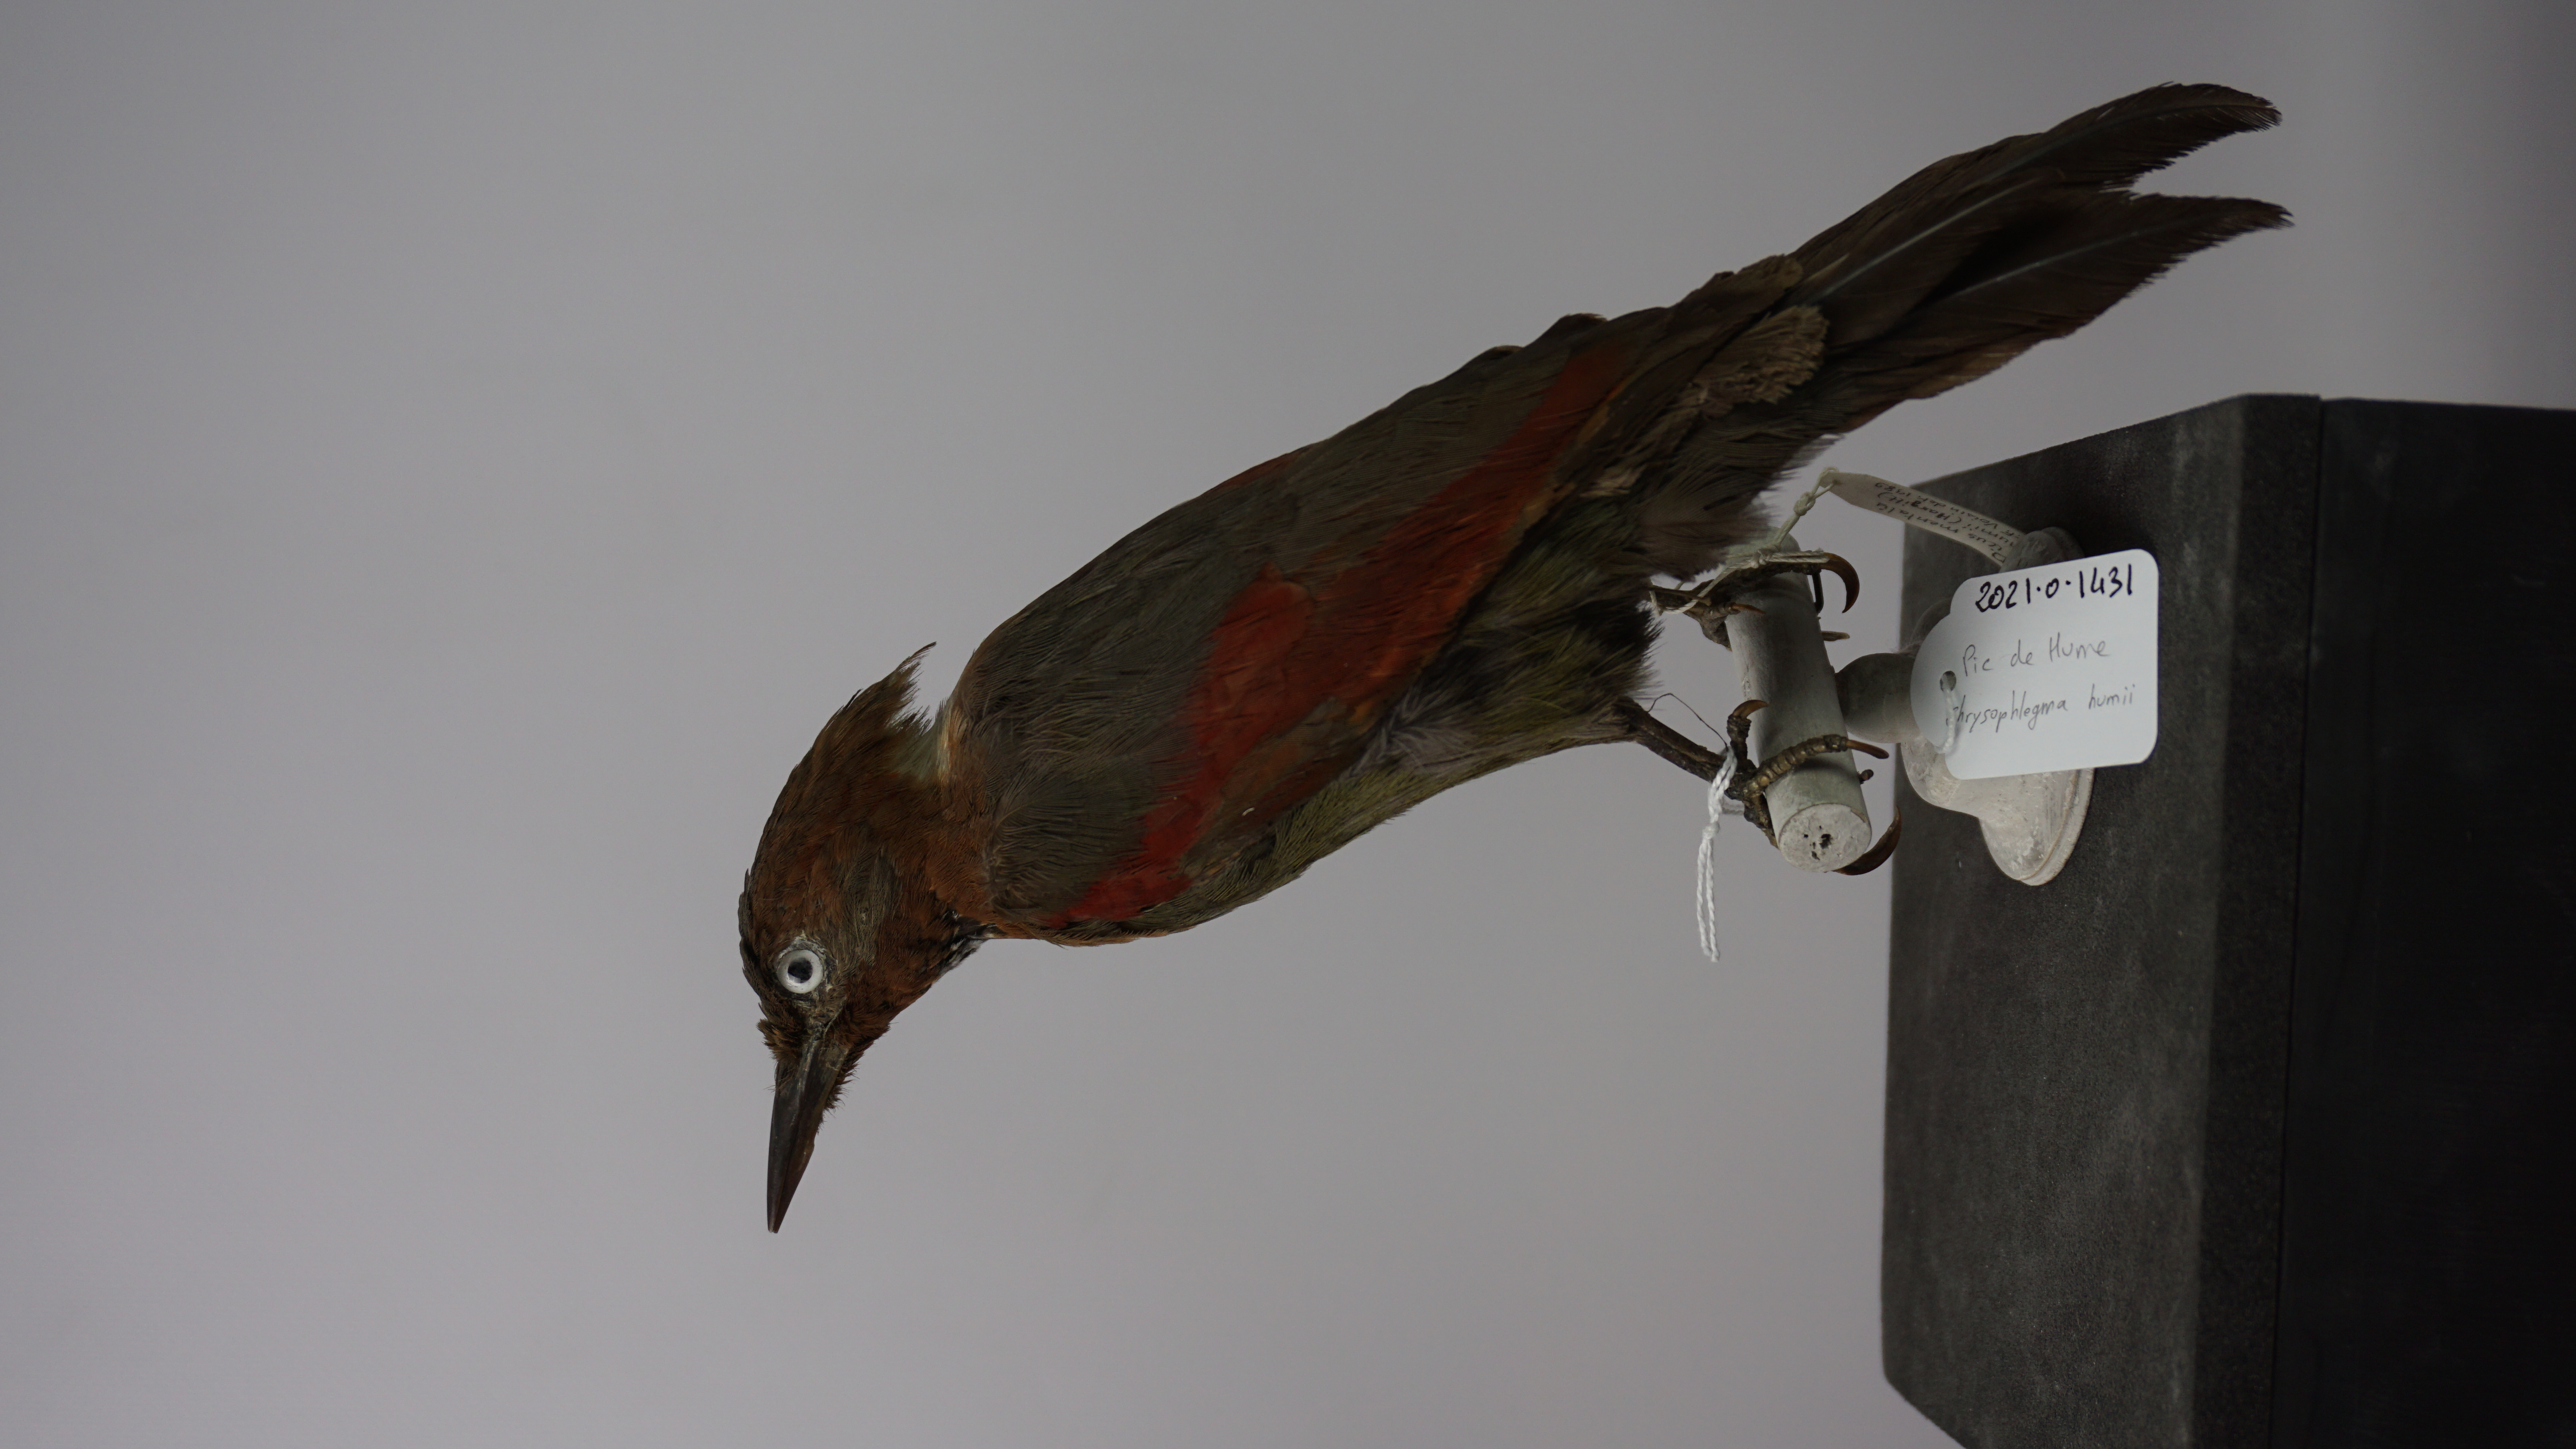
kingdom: Animalia
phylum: Chordata
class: Aves
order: Piciformes
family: Picidae
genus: Chrysophlegma
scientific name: Chrysophlegma humii
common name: Chequer-throated yellownape
